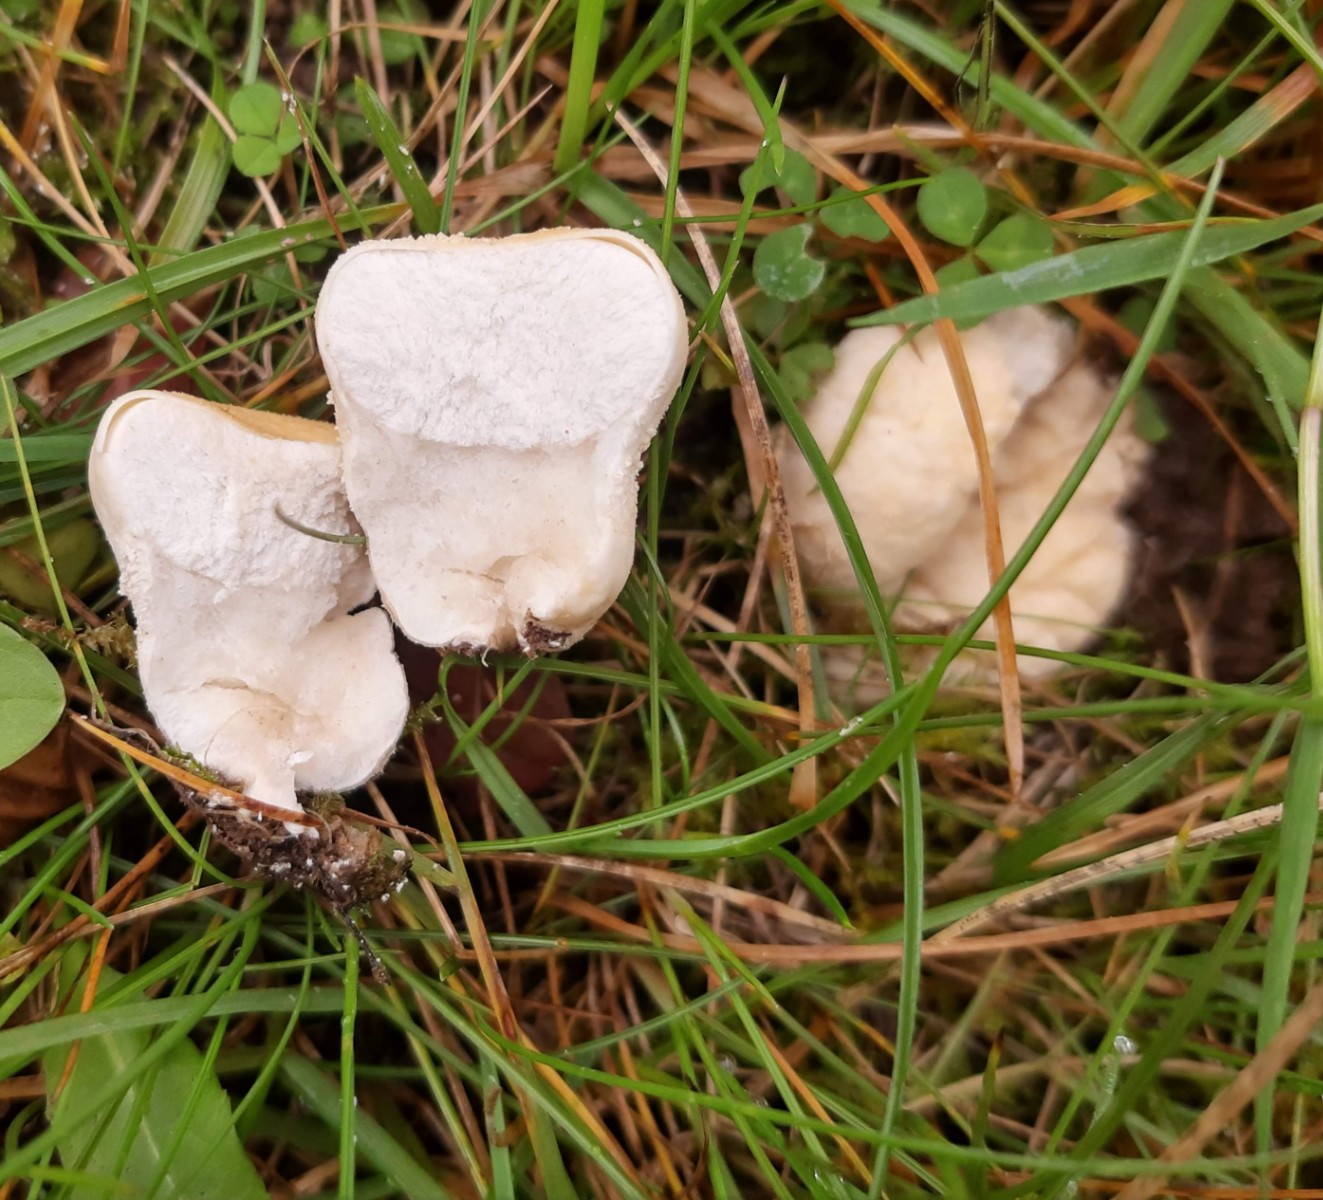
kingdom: Fungi
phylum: Basidiomycota
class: Agaricomycetes
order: Agaricales
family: Lycoperdaceae
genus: Lycoperdon
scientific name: Lycoperdon pratense
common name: flad støvbold
